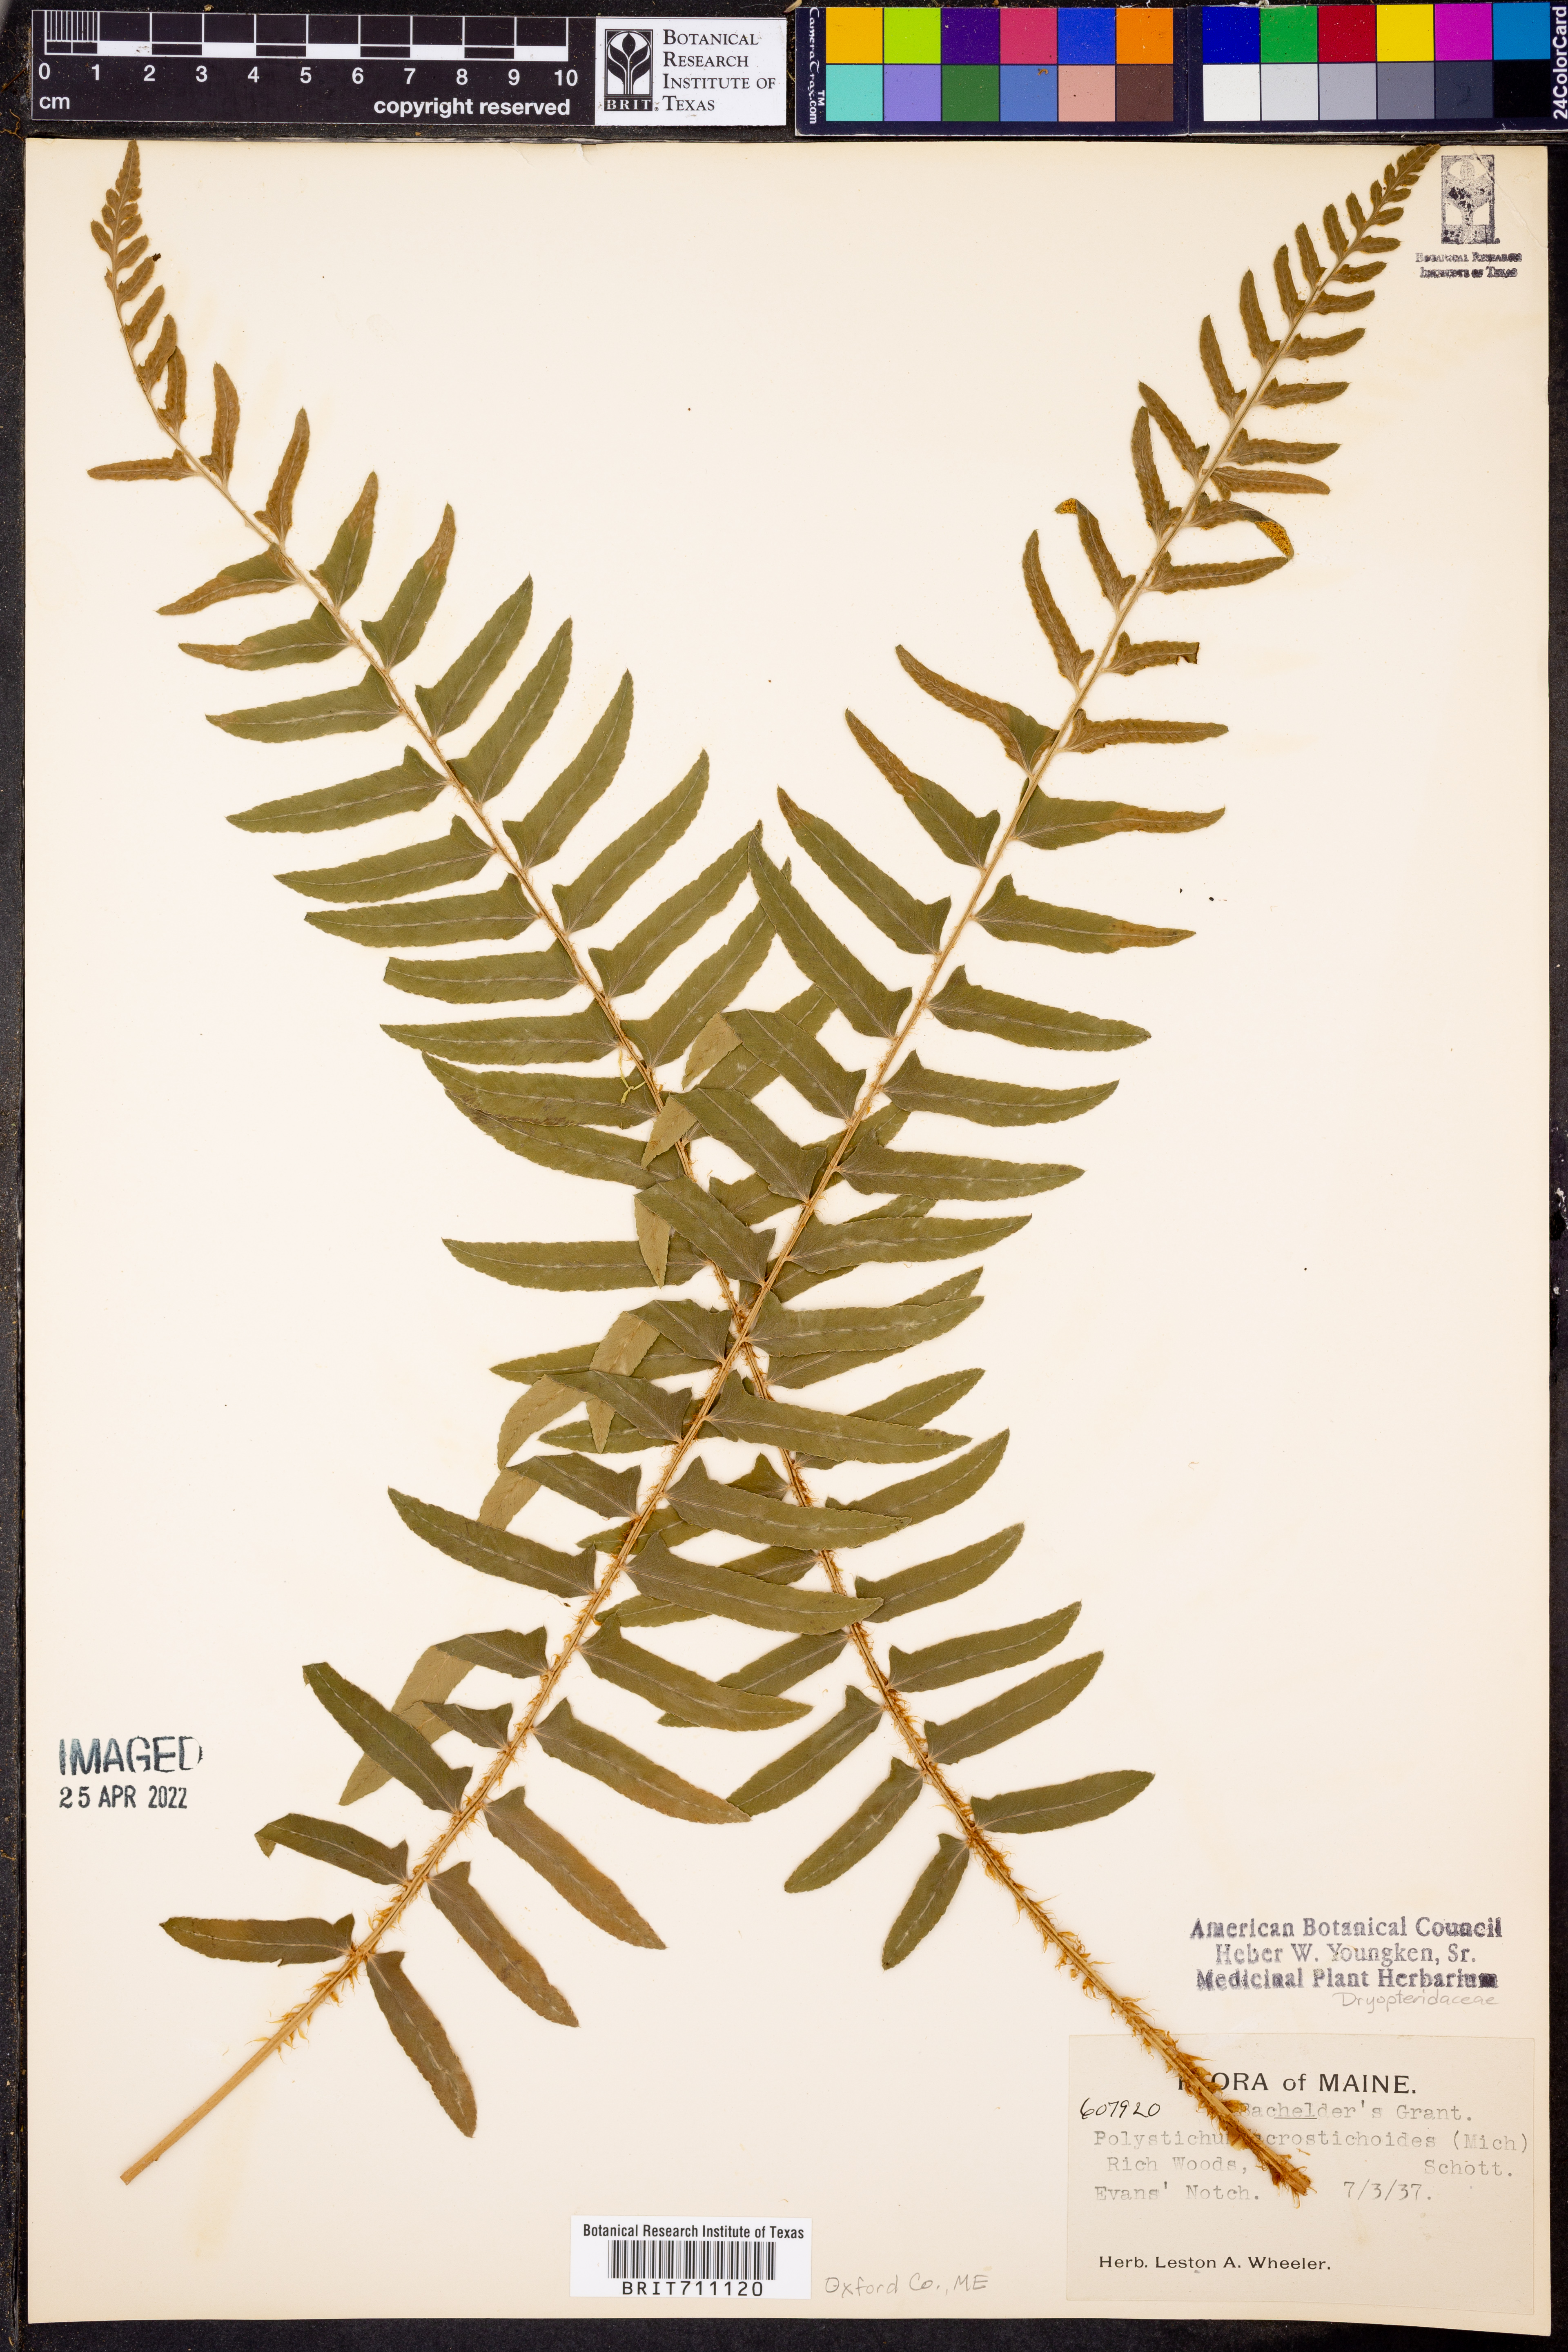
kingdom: Plantae
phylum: Tracheophyta
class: Polypodiopsida
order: Polypodiales
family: Dryopteridaceae
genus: Polystichum
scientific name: Polystichum acrostichoides
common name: Christmas fern
